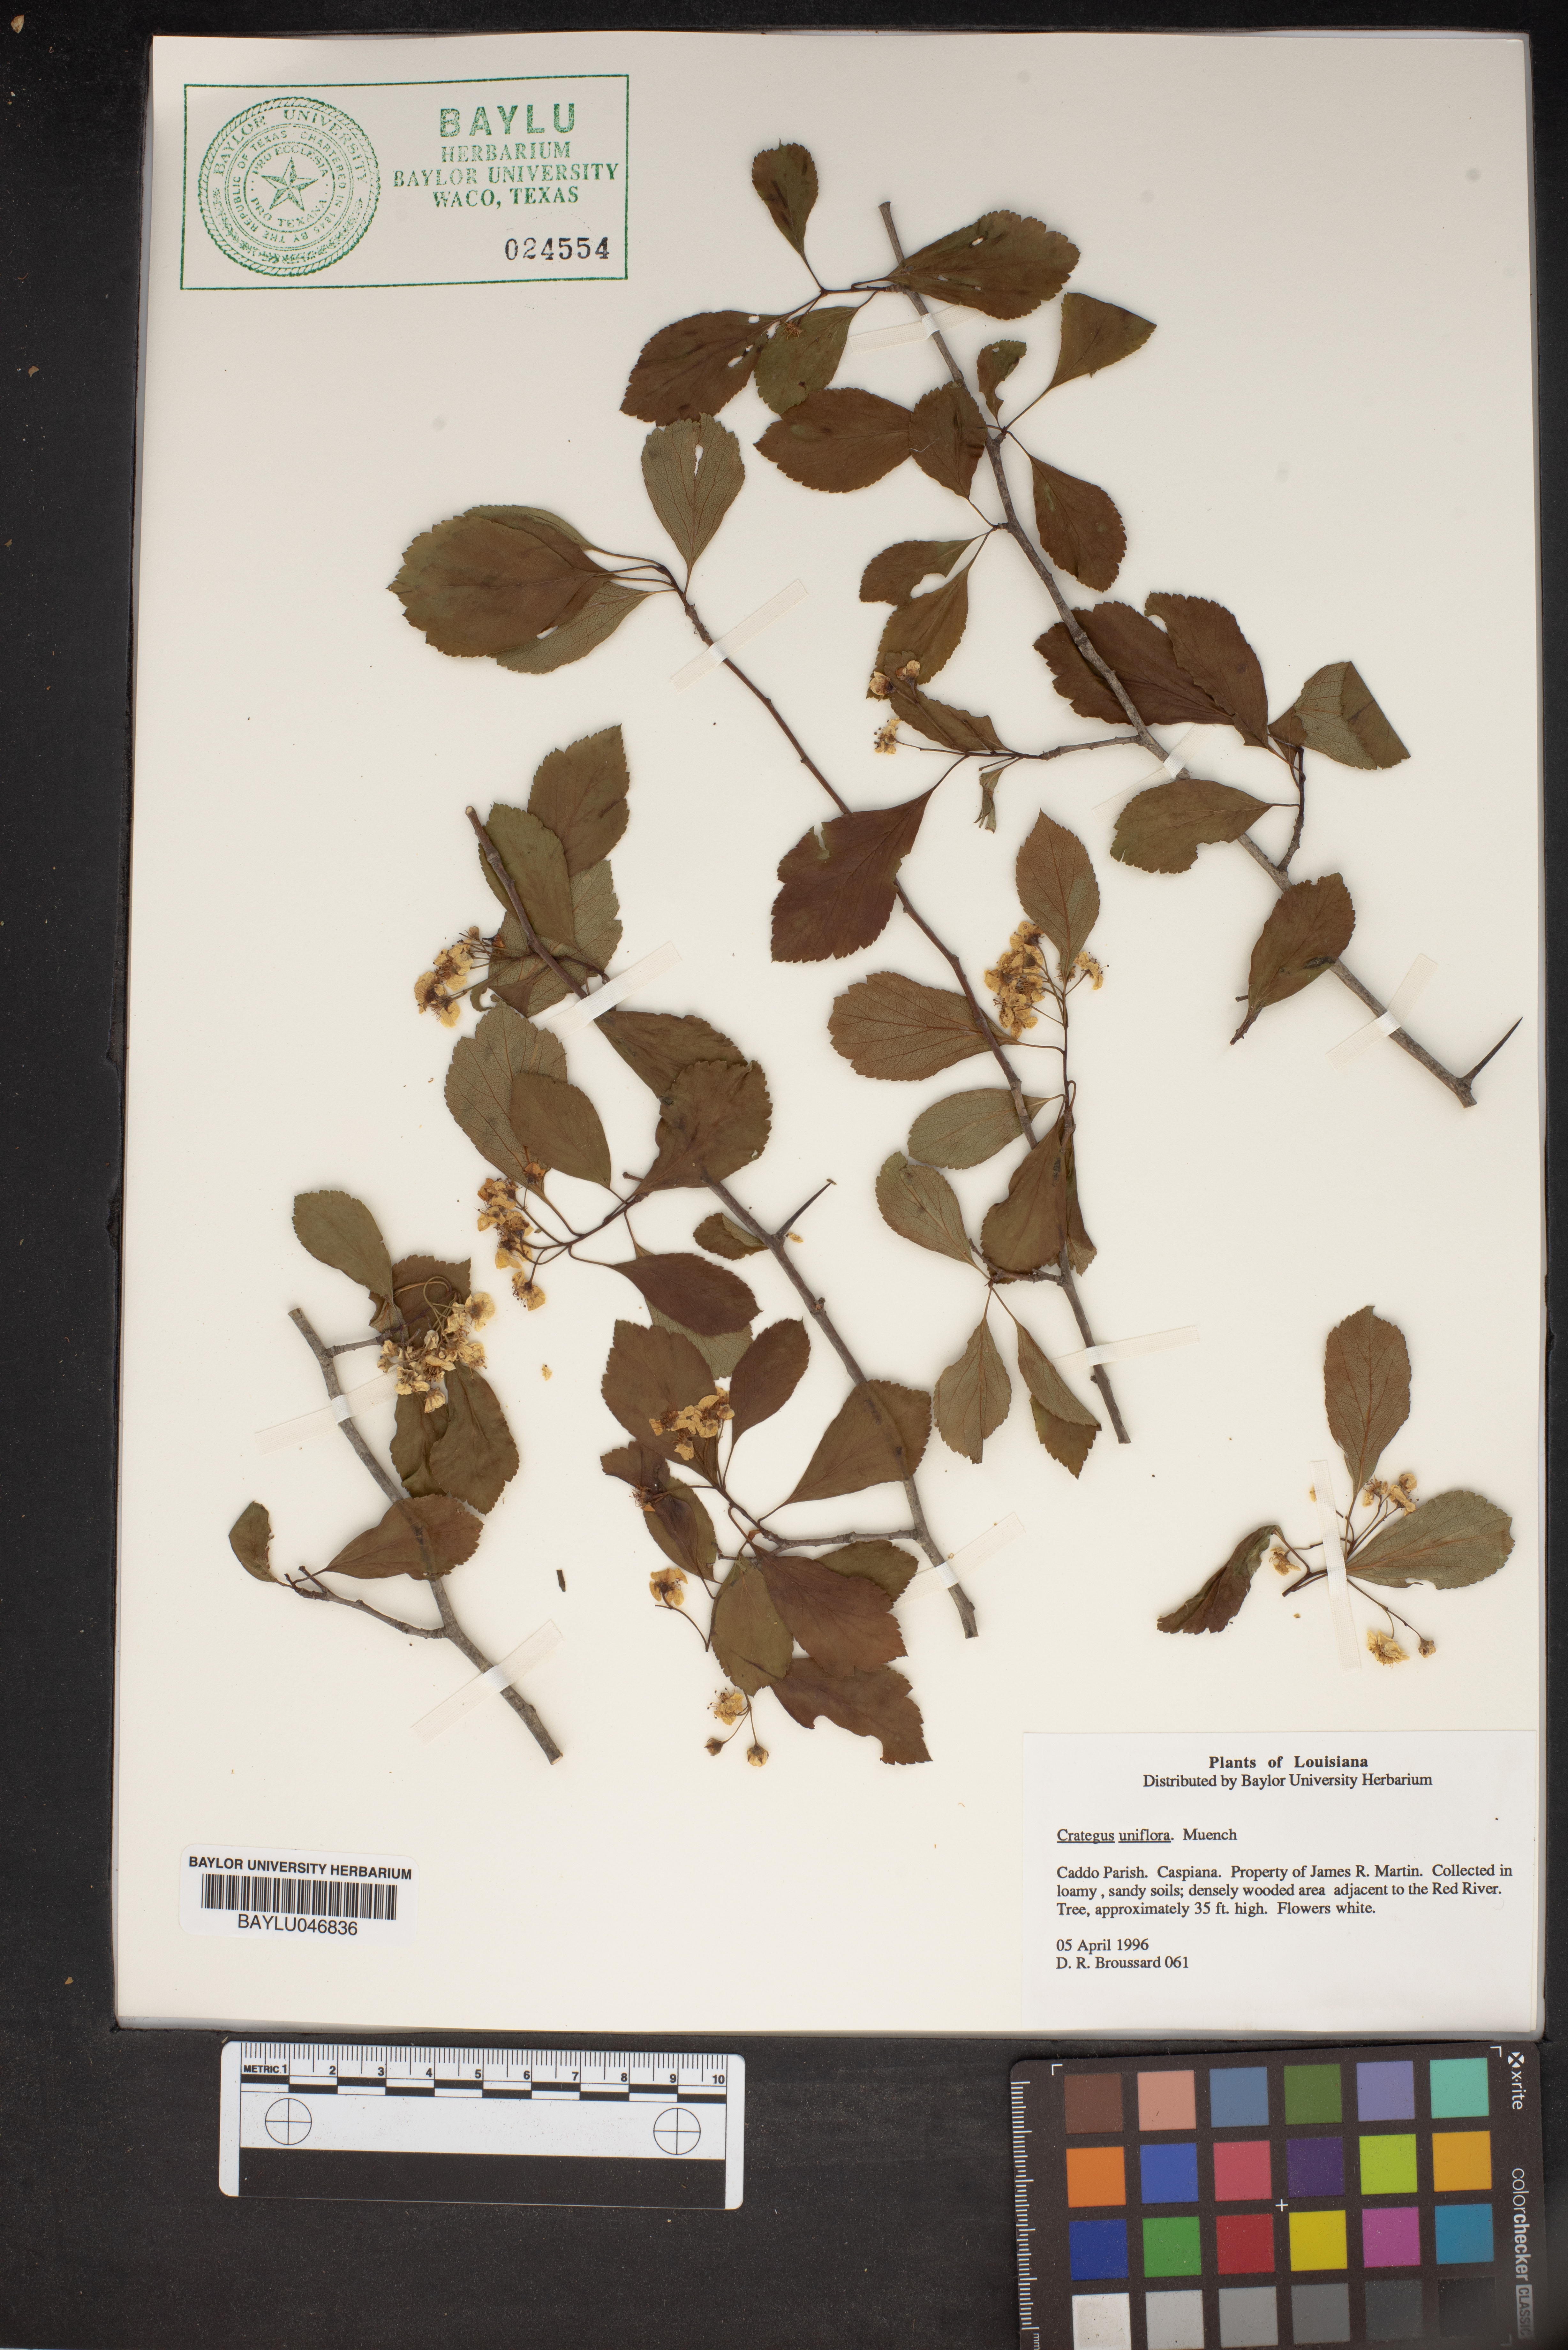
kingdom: Plantae
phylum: Tracheophyta
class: Magnoliopsida
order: Rosales
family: Rosaceae
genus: Crataegus
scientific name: Crataegus uniflora
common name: One-flower hawthorn
